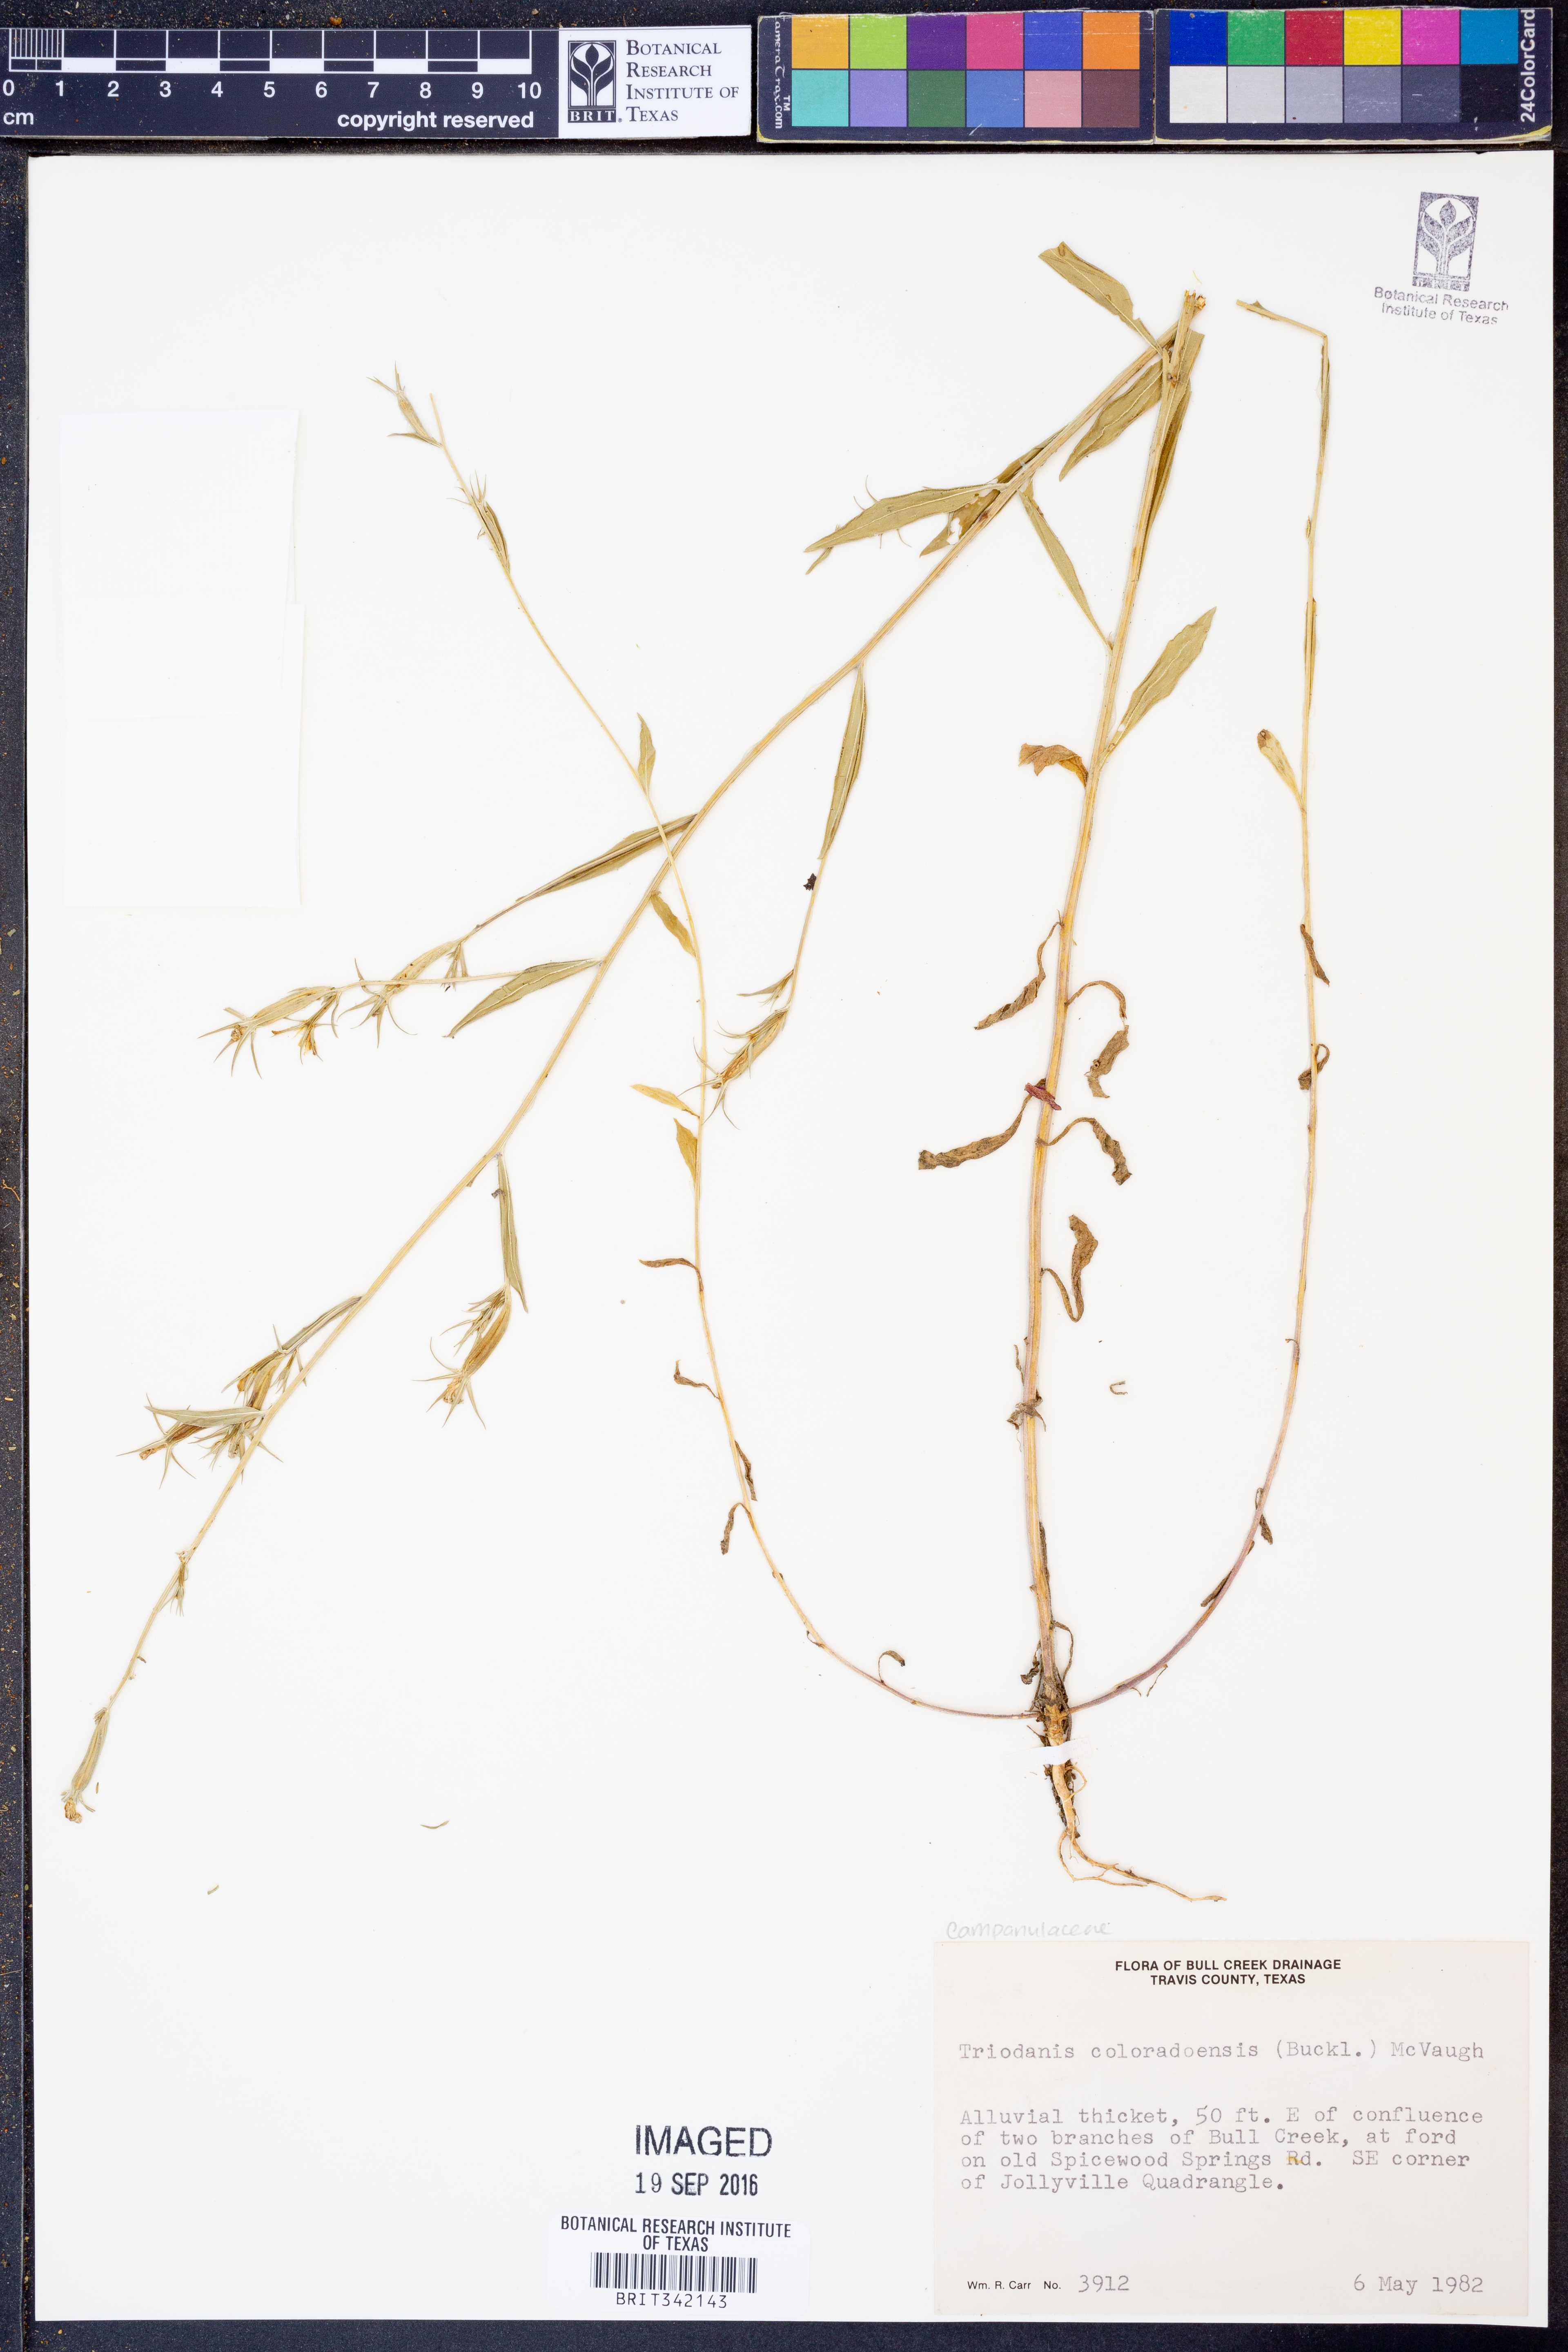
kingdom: Plantae
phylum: Tracheophyta
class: Magnoliopsida
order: Asterales
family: Campanulaceae
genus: Triodanis
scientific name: Triodanis coloradoensis
